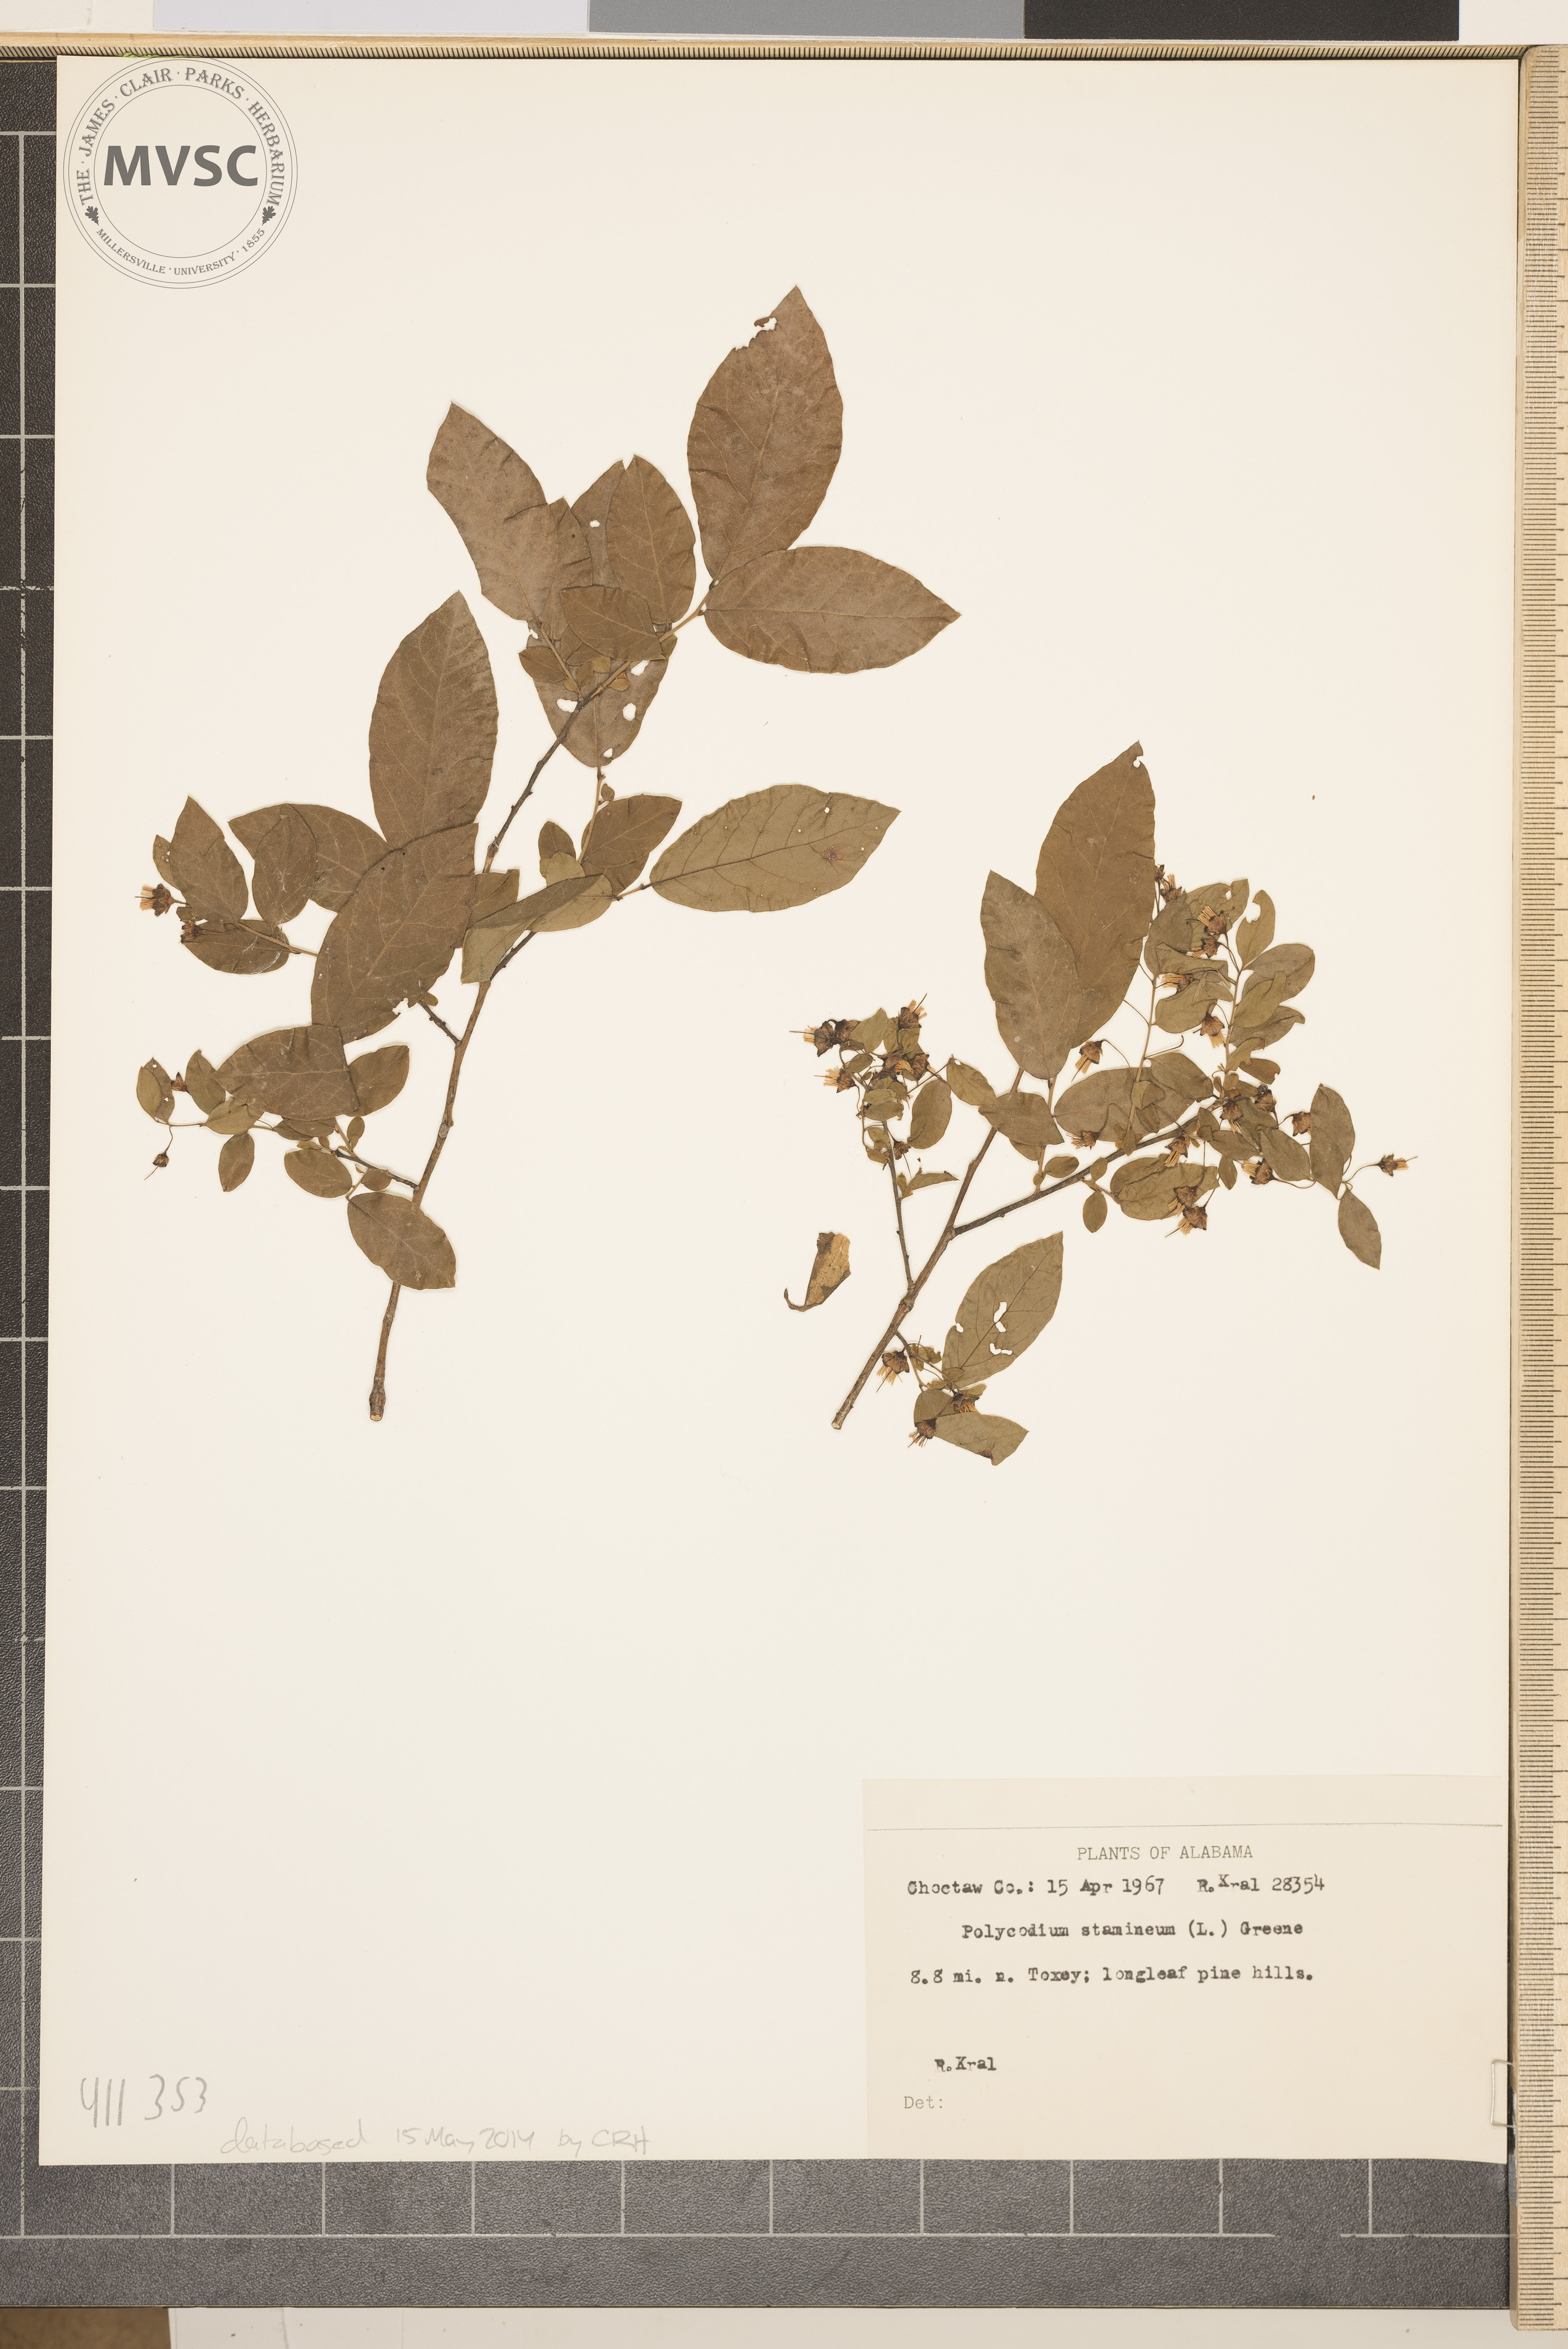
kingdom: Plantae
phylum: Tracheophyta
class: Magnoliopsida
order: Ericales
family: Ericaceae
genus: Vaccinium
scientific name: Vaccinium stamineum
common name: Deerberry
